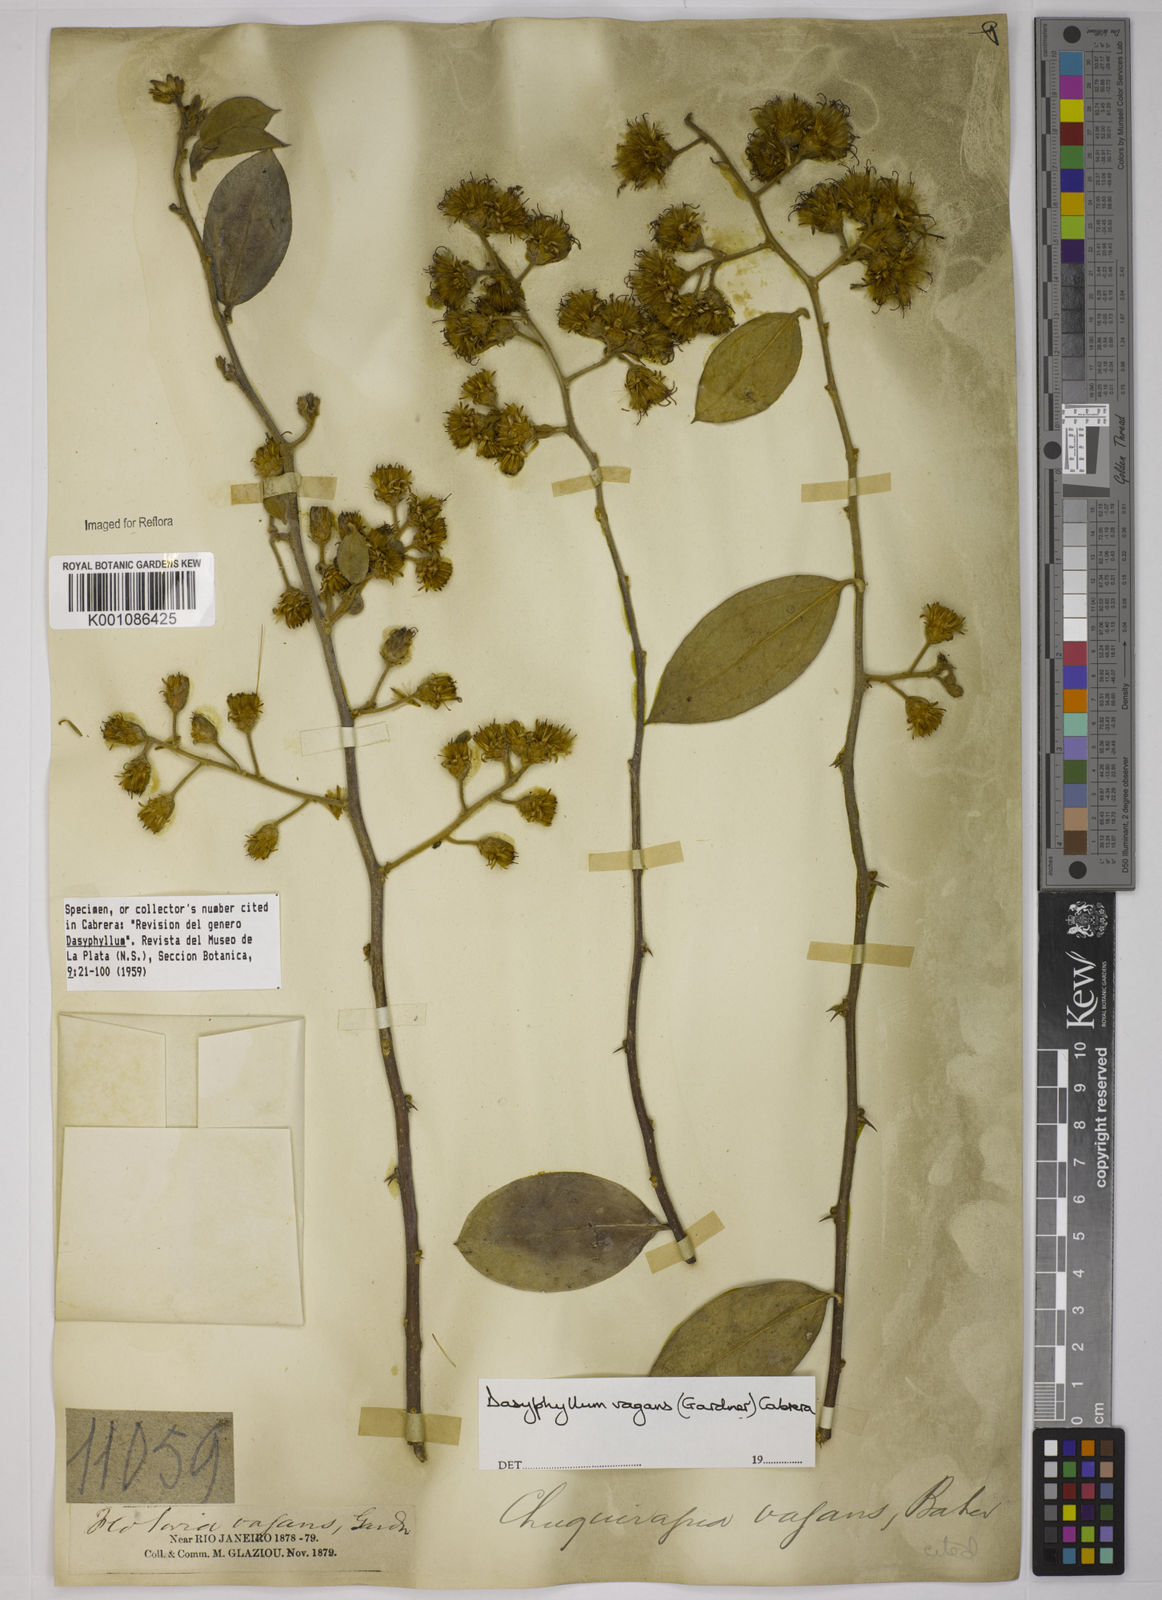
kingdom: Plantae
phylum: Tracheophyta
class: Magnoliopsida
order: Asterales
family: Asteraceae
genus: Dasyphyllum
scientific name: Dasyphyllum vagans
